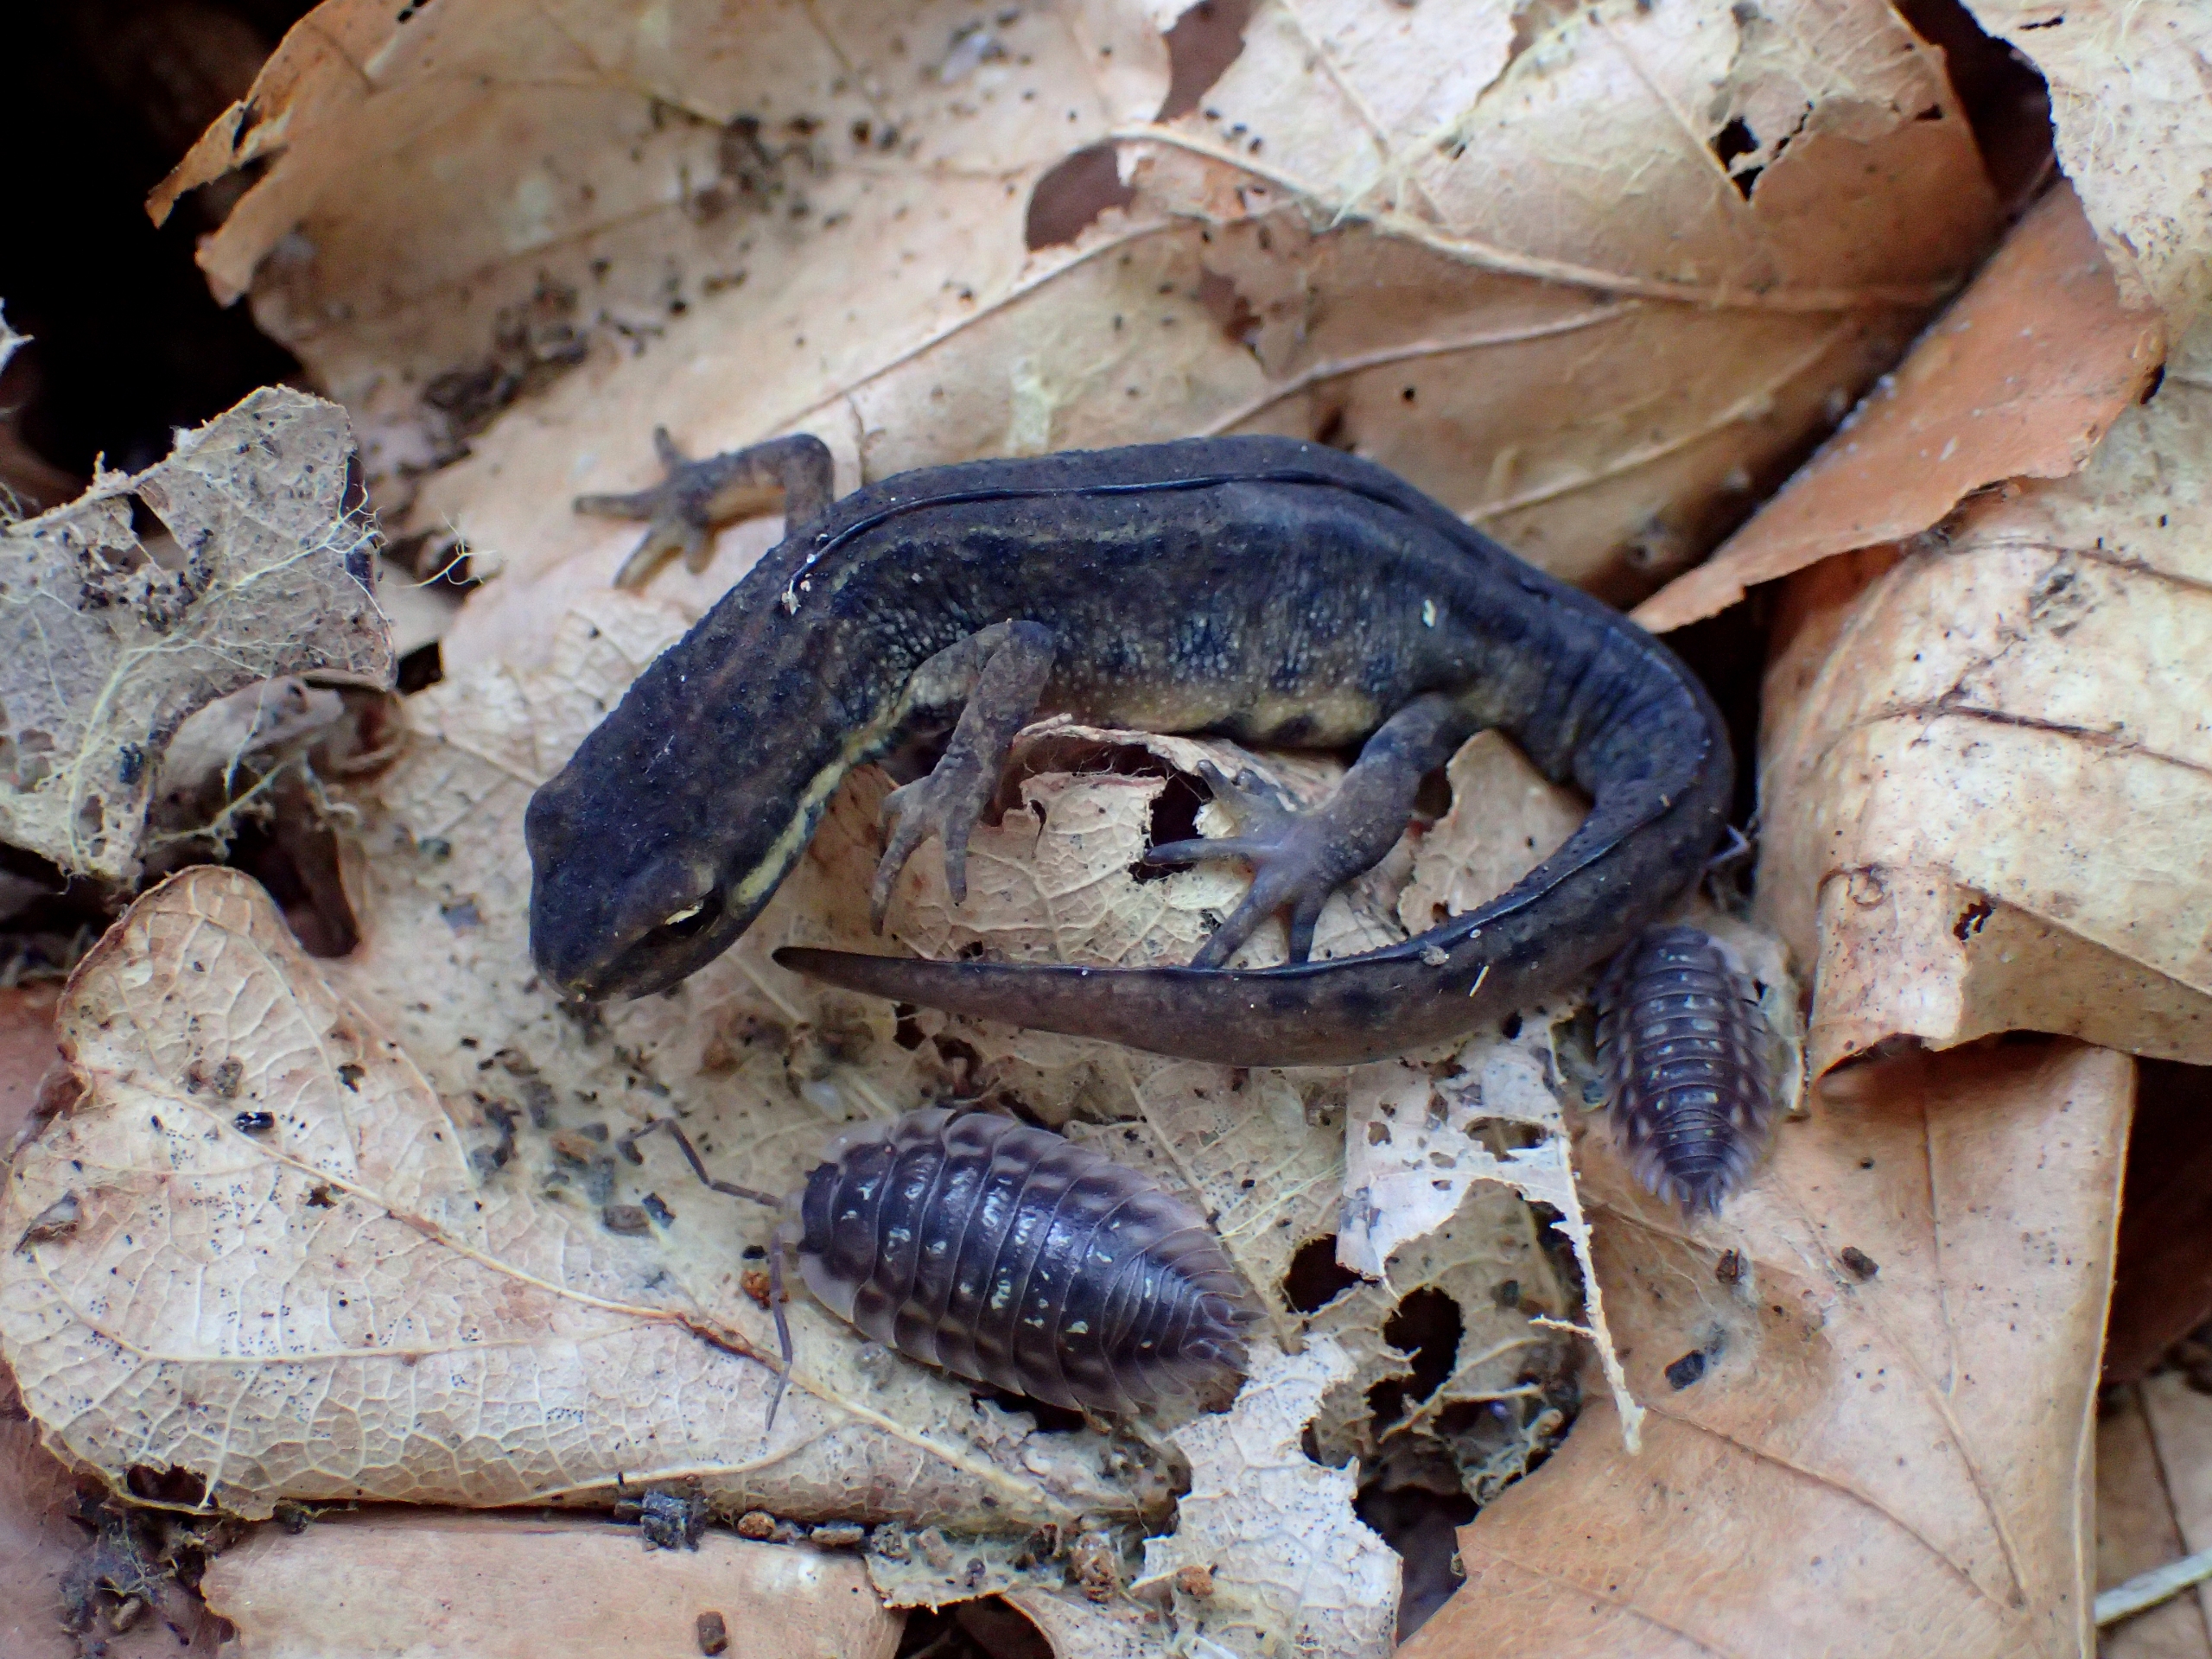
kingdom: Animalia
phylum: Chordata
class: Amphibia
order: Caudata
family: Salamandridae
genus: Lissotriton
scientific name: Lissotriton vulgaris
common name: Lille vandsalamander
